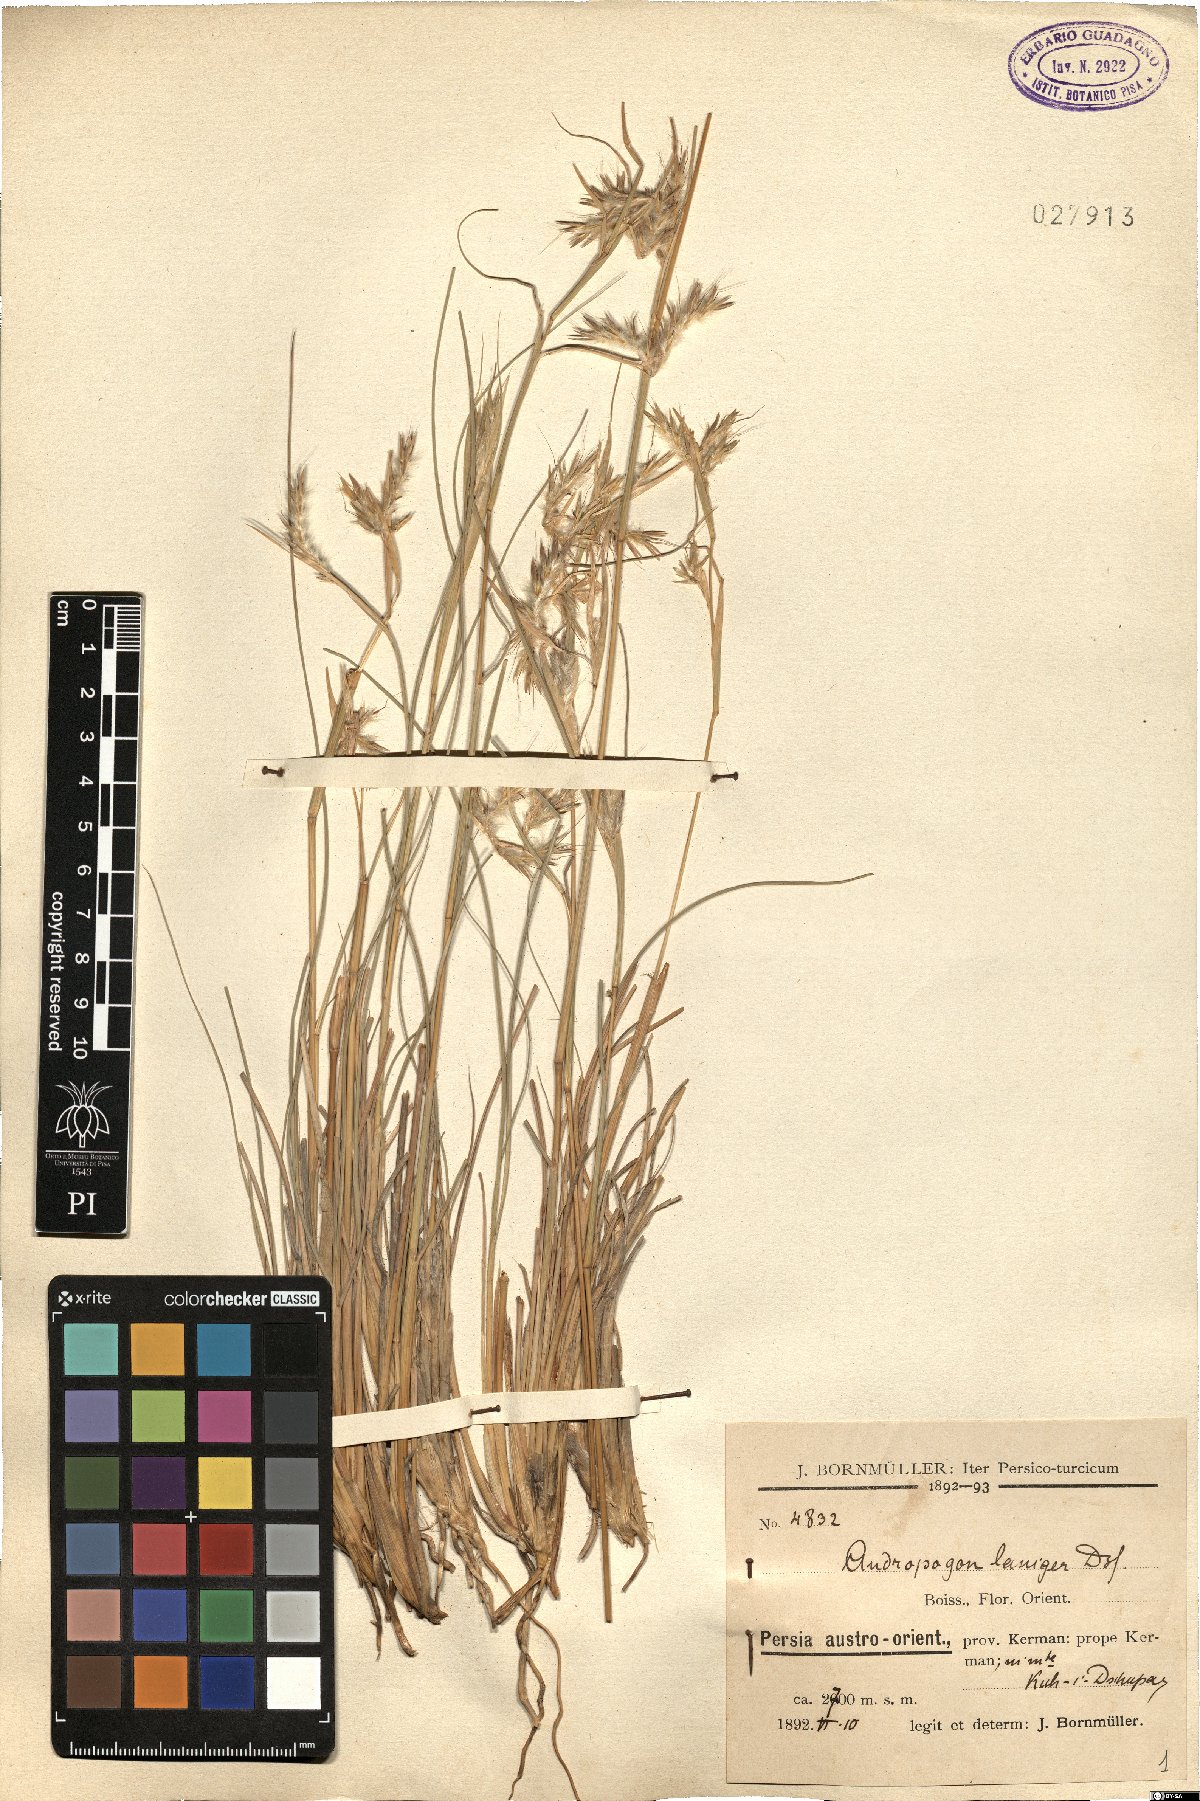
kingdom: Plantae
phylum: Tracheophyta
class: Liliopsida
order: Poales
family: Poaceae
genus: Cymbopogon
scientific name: Cymbopogon iwarancusa
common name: Iwarancusa grass
